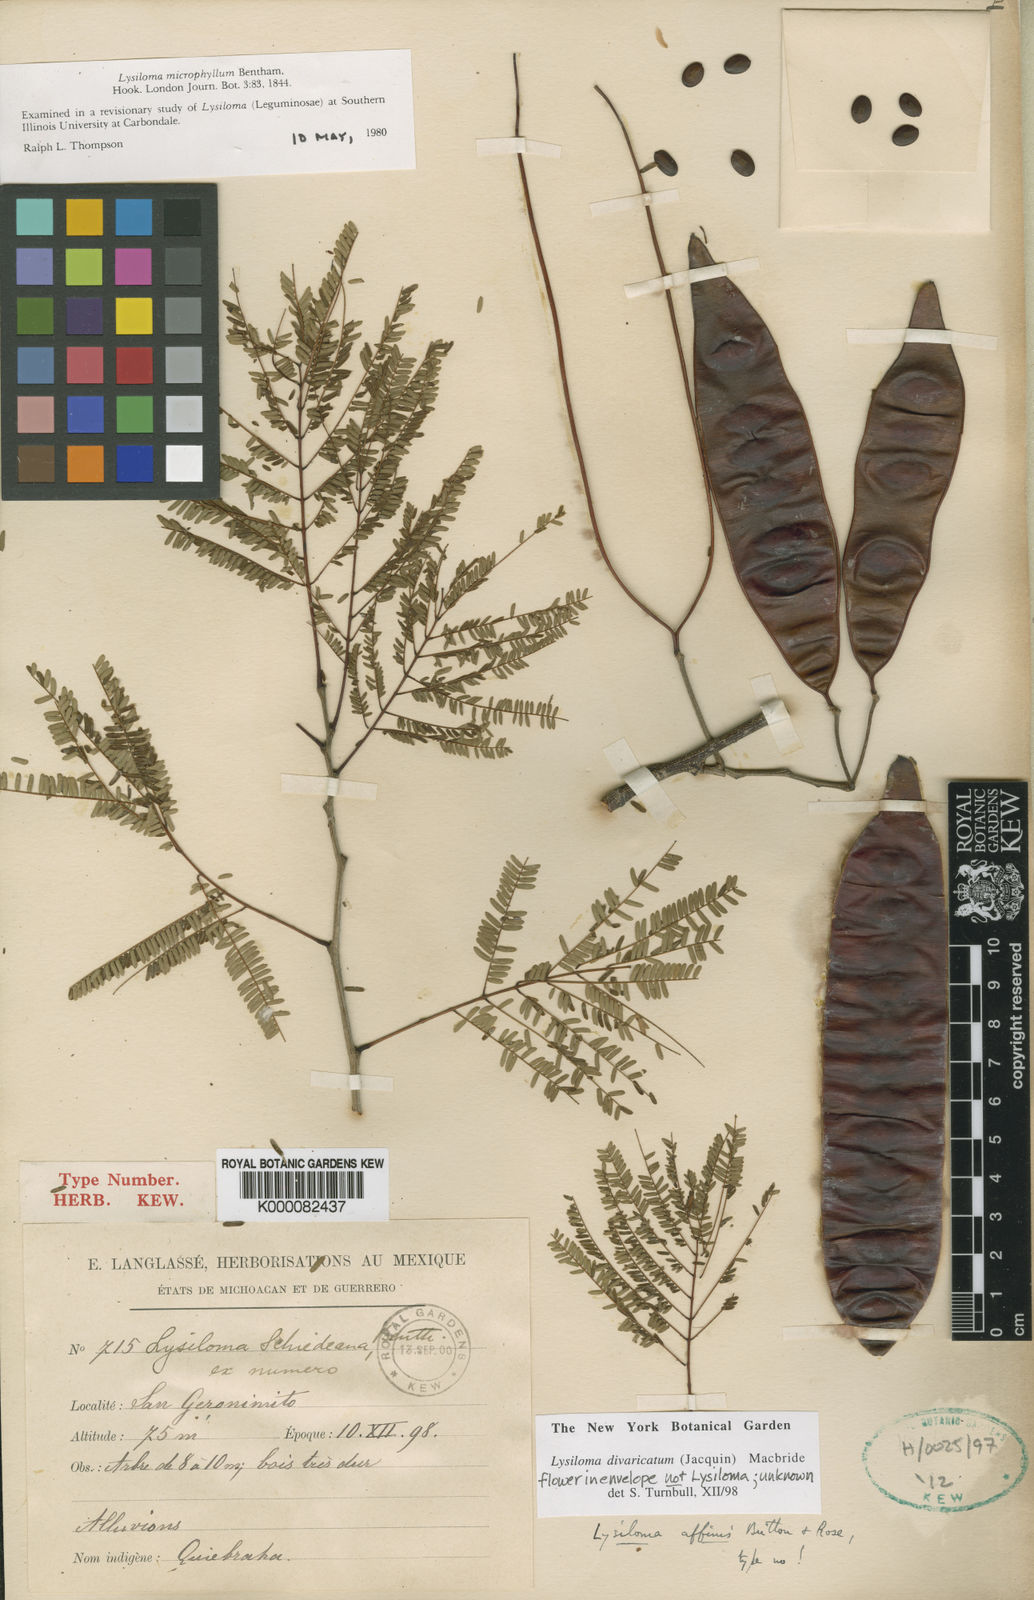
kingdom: Plantae
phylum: Tracheophyta
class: Magnoliopsida
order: Fabales
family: Fabaceae
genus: Lysiloma
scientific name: Lysiloma divaricatum
